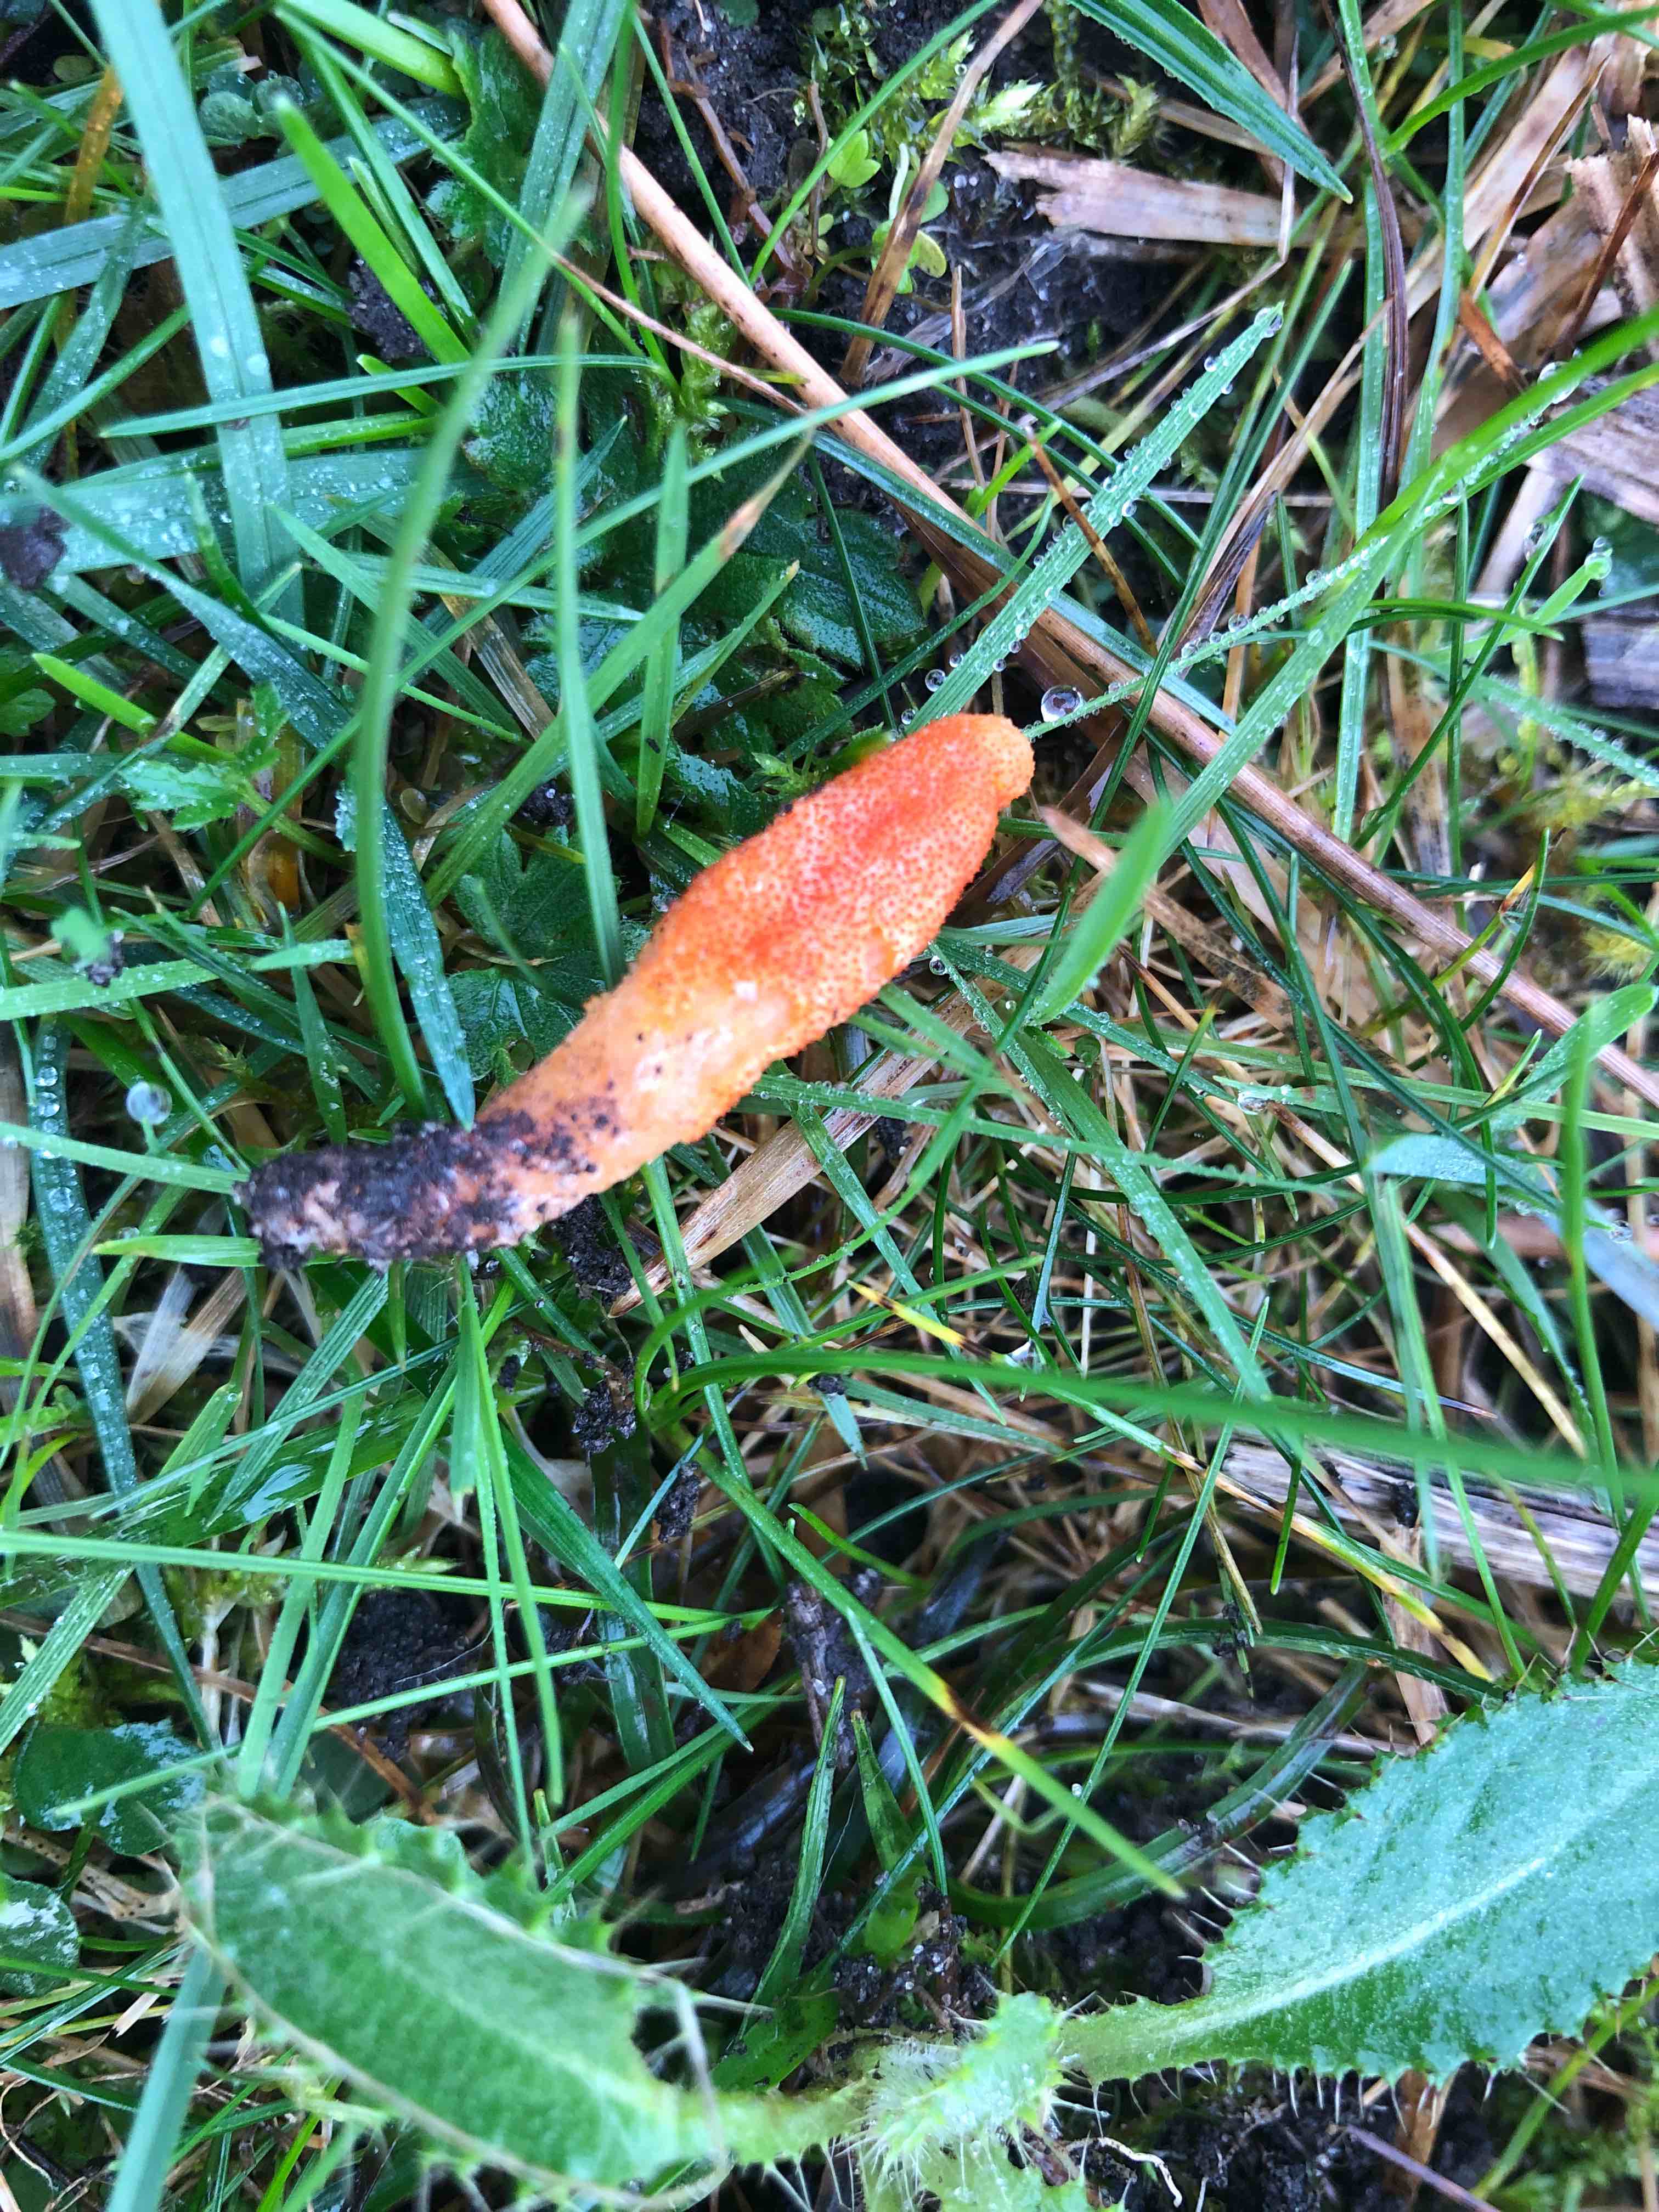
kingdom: Fungi
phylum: Ascomycota
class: Sordariomycetes
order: Hypocreales
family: Cordycipitaceae
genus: Cordyceps
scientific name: Cordyceps militaris
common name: puppe-snyltekølle
